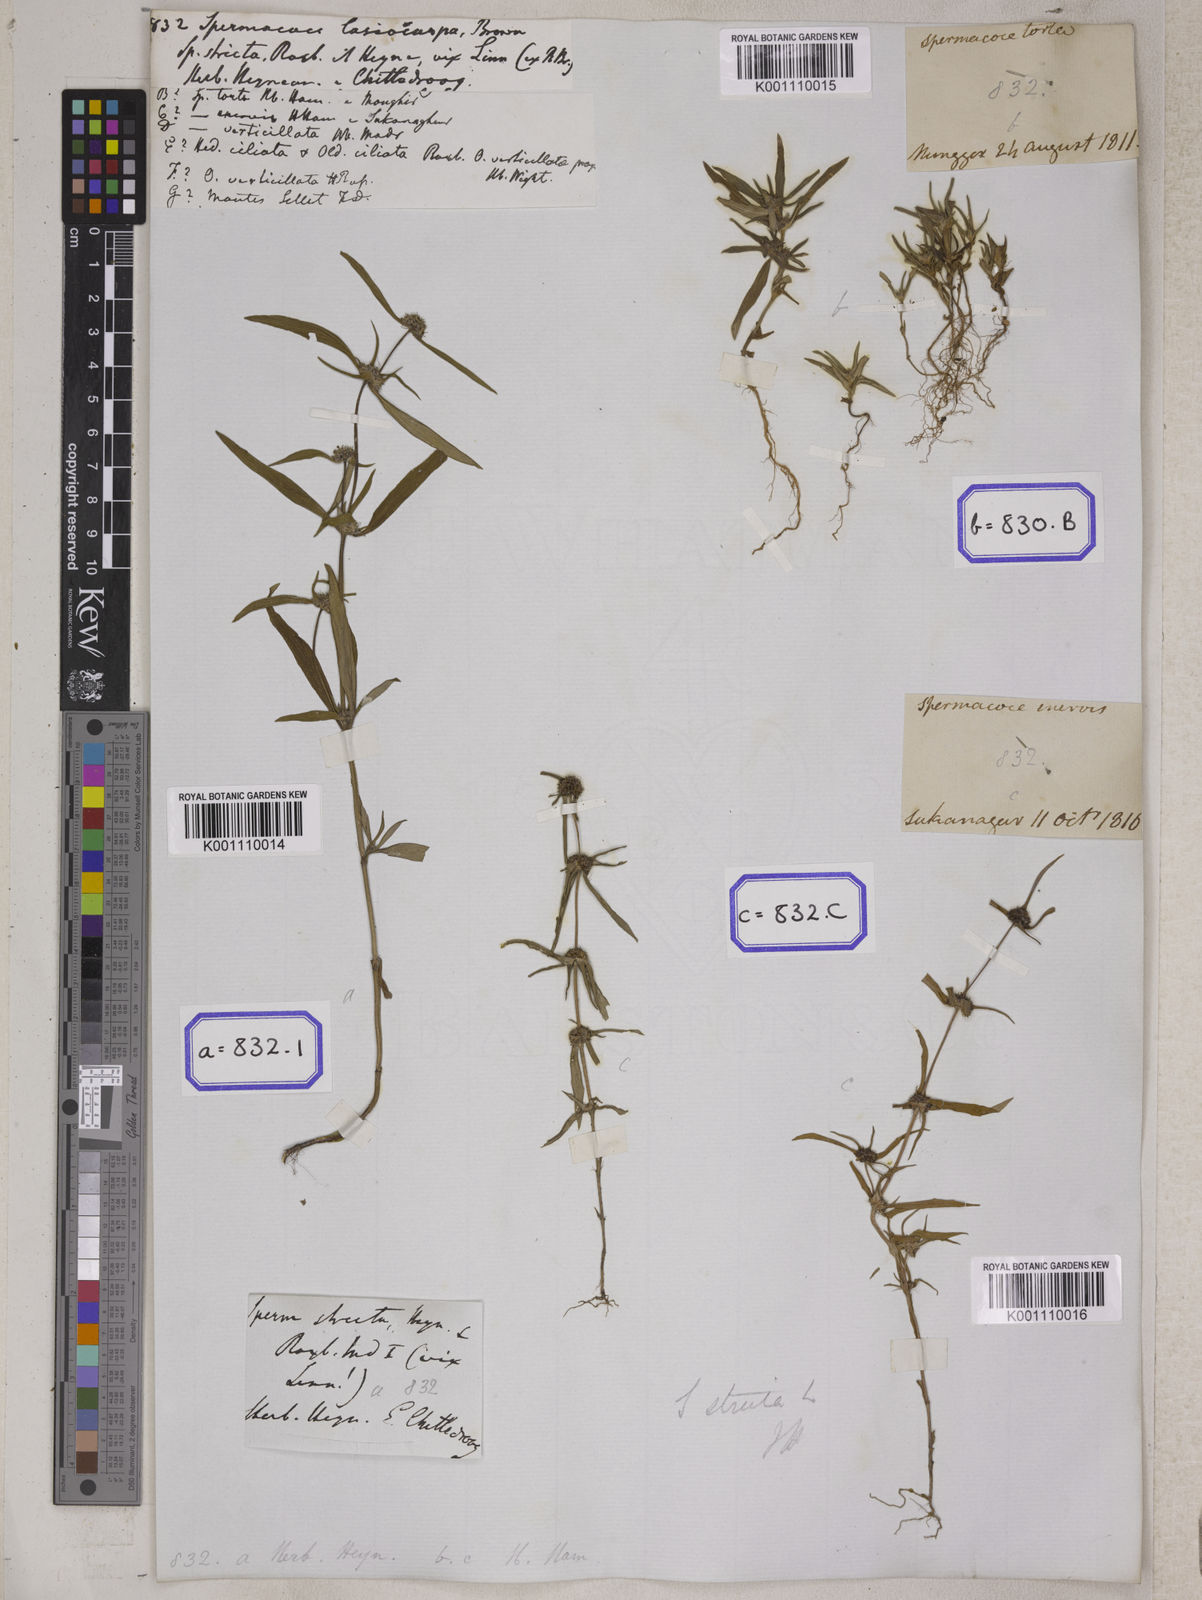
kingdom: Plantae
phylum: Tracheophyta
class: Magnoliopsida
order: Gentianales
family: Rubiaceae
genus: Spermacoce
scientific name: Spermacoce
